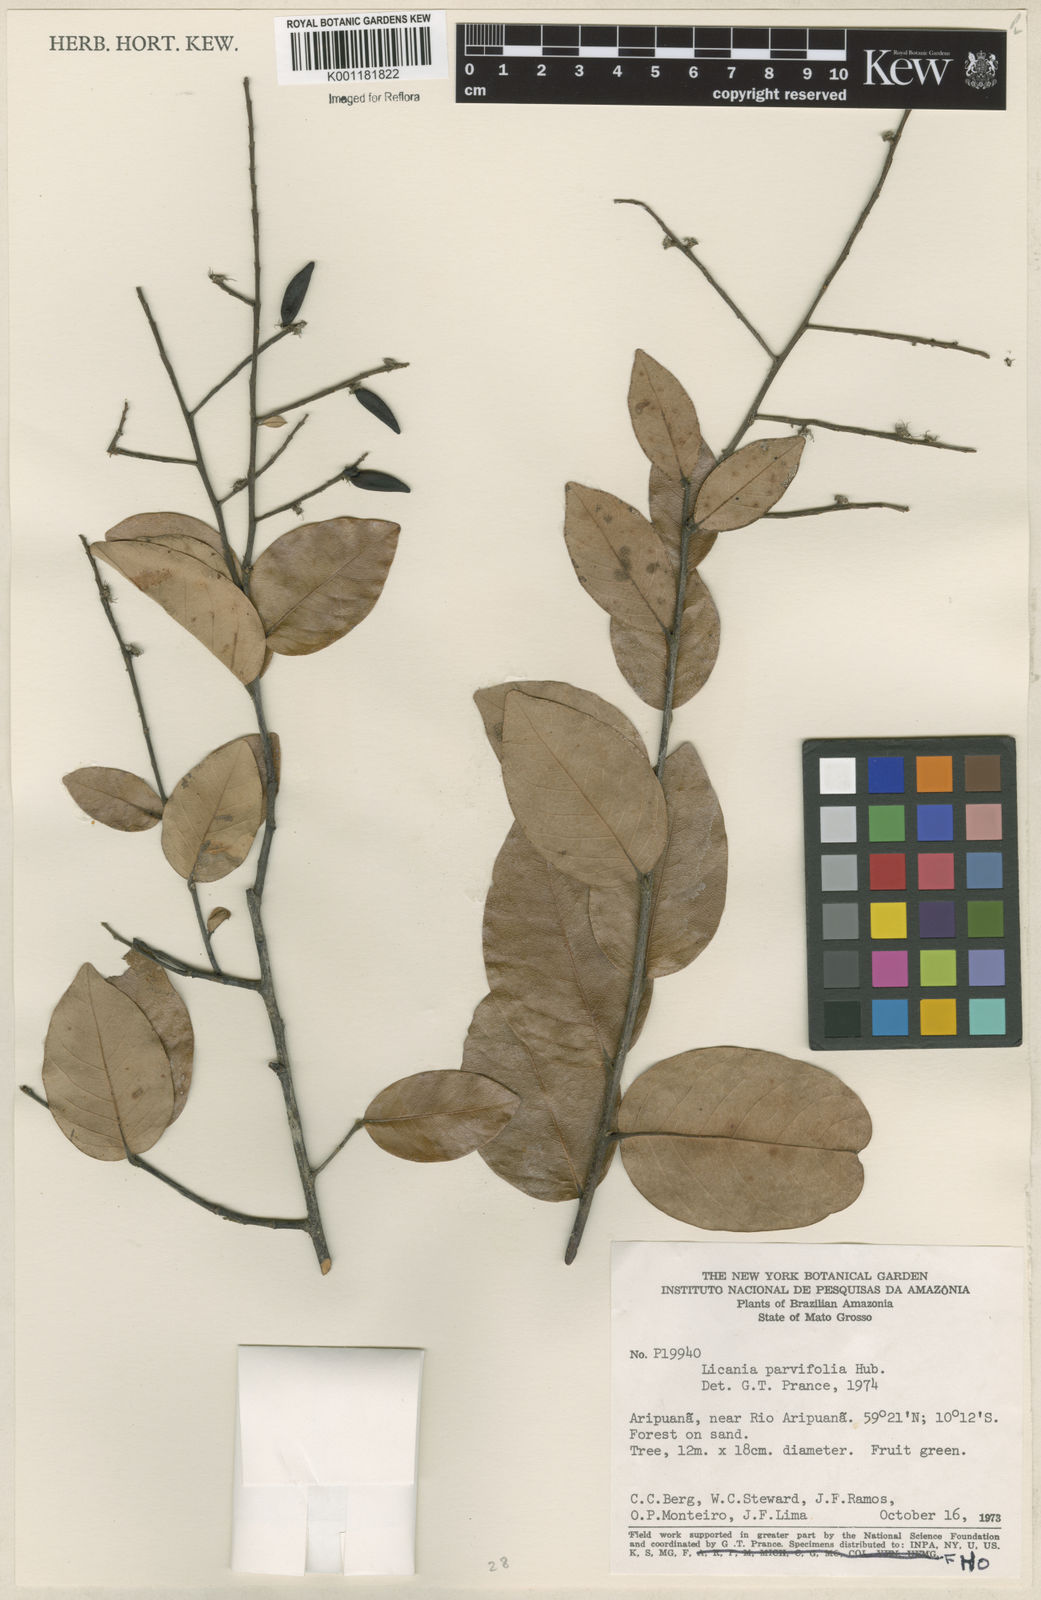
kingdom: Plantae
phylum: Tracheophyta
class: Magnoliopsida
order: Malpighiales
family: Chrysobalanaceae
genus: Licania
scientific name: Licania parvifolia
